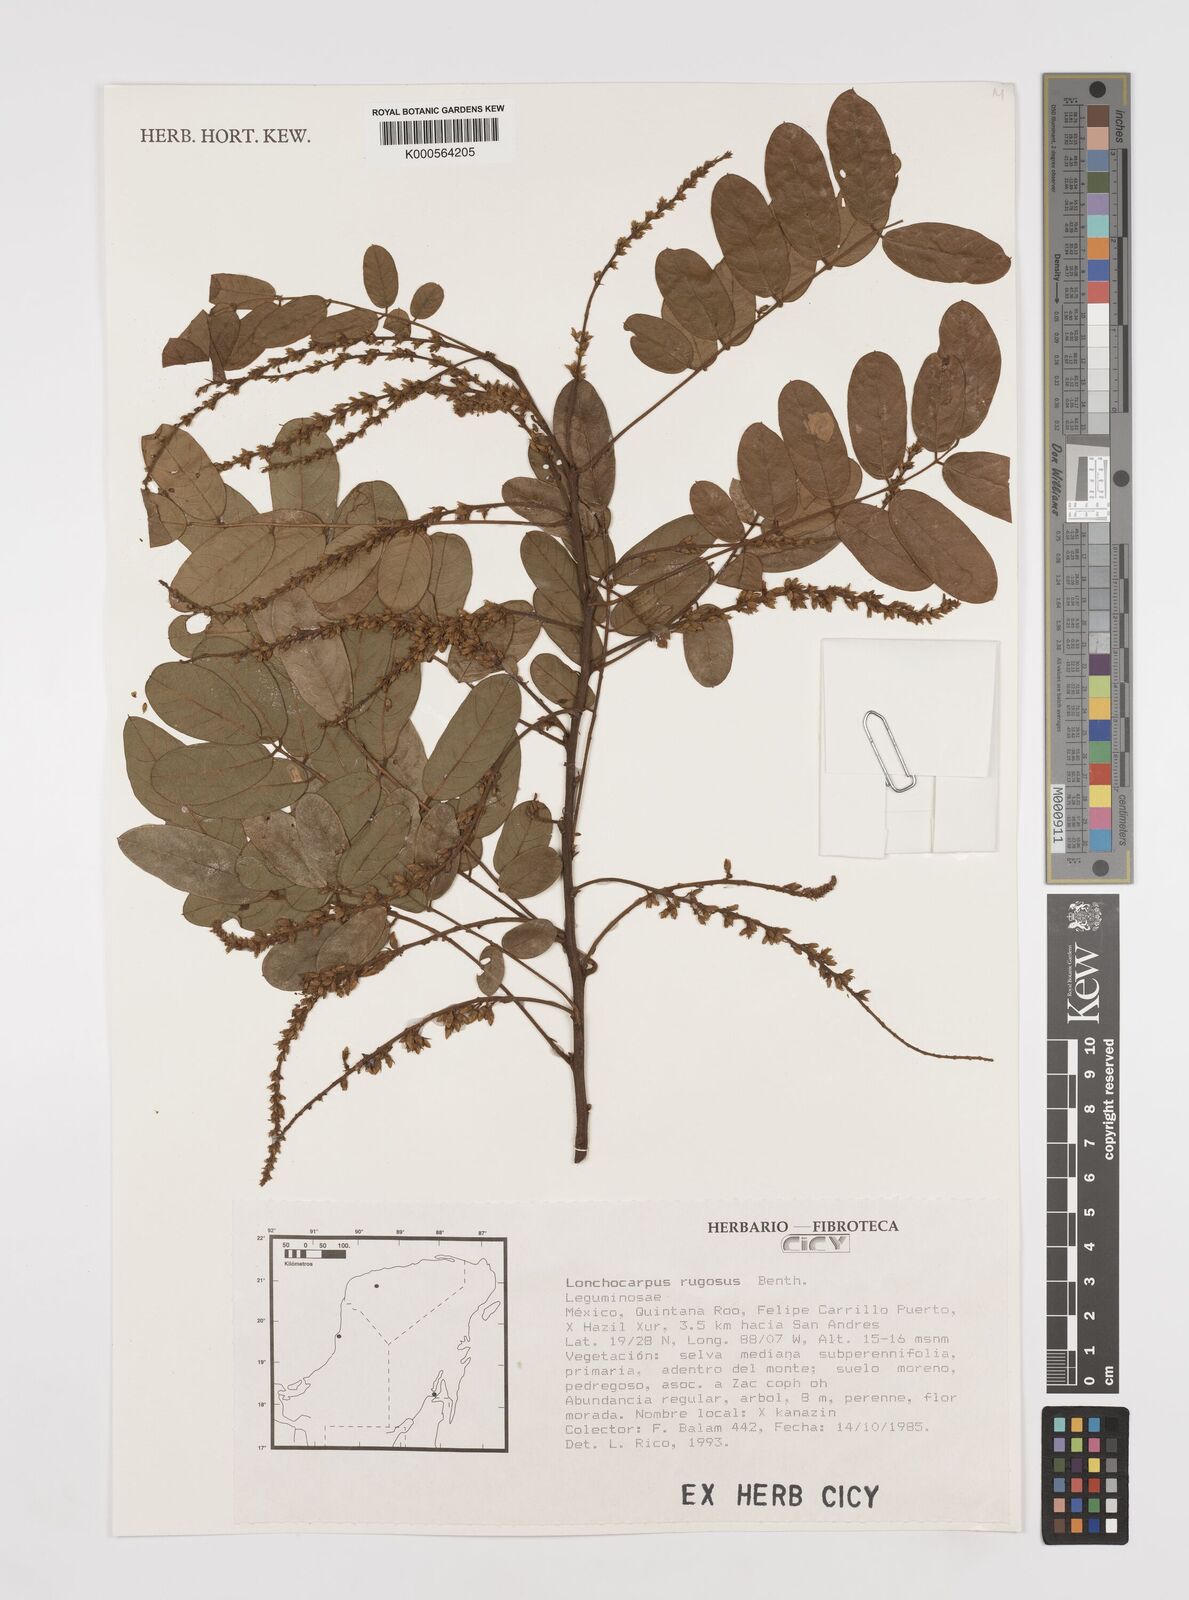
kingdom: Plantae
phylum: Tracheophyta
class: Magnoliopsida
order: Fabales
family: Fabaceae
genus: Lonchocarpus
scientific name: Lonchocarpus rugosus
